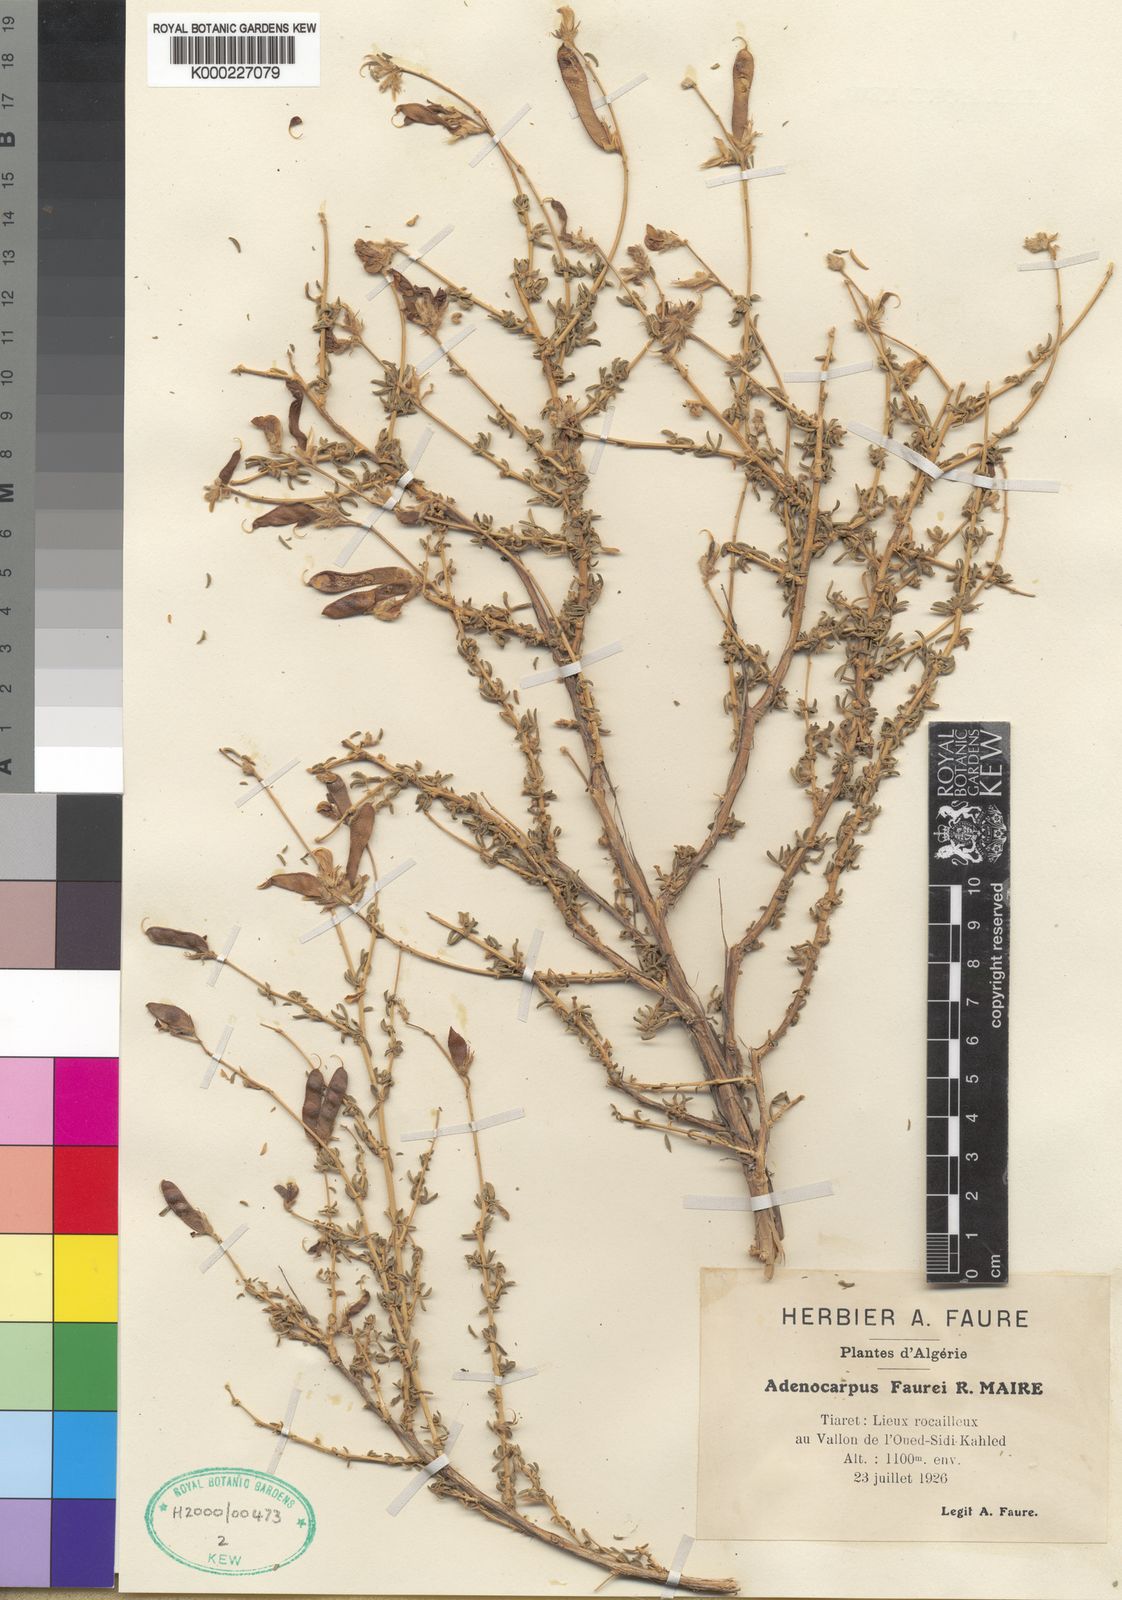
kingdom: Plantae
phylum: Tracheophyta
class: Magnoliopsida
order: Fabales
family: Fabaceae
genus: Adenocarpus
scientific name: Adenocarpus faurei
